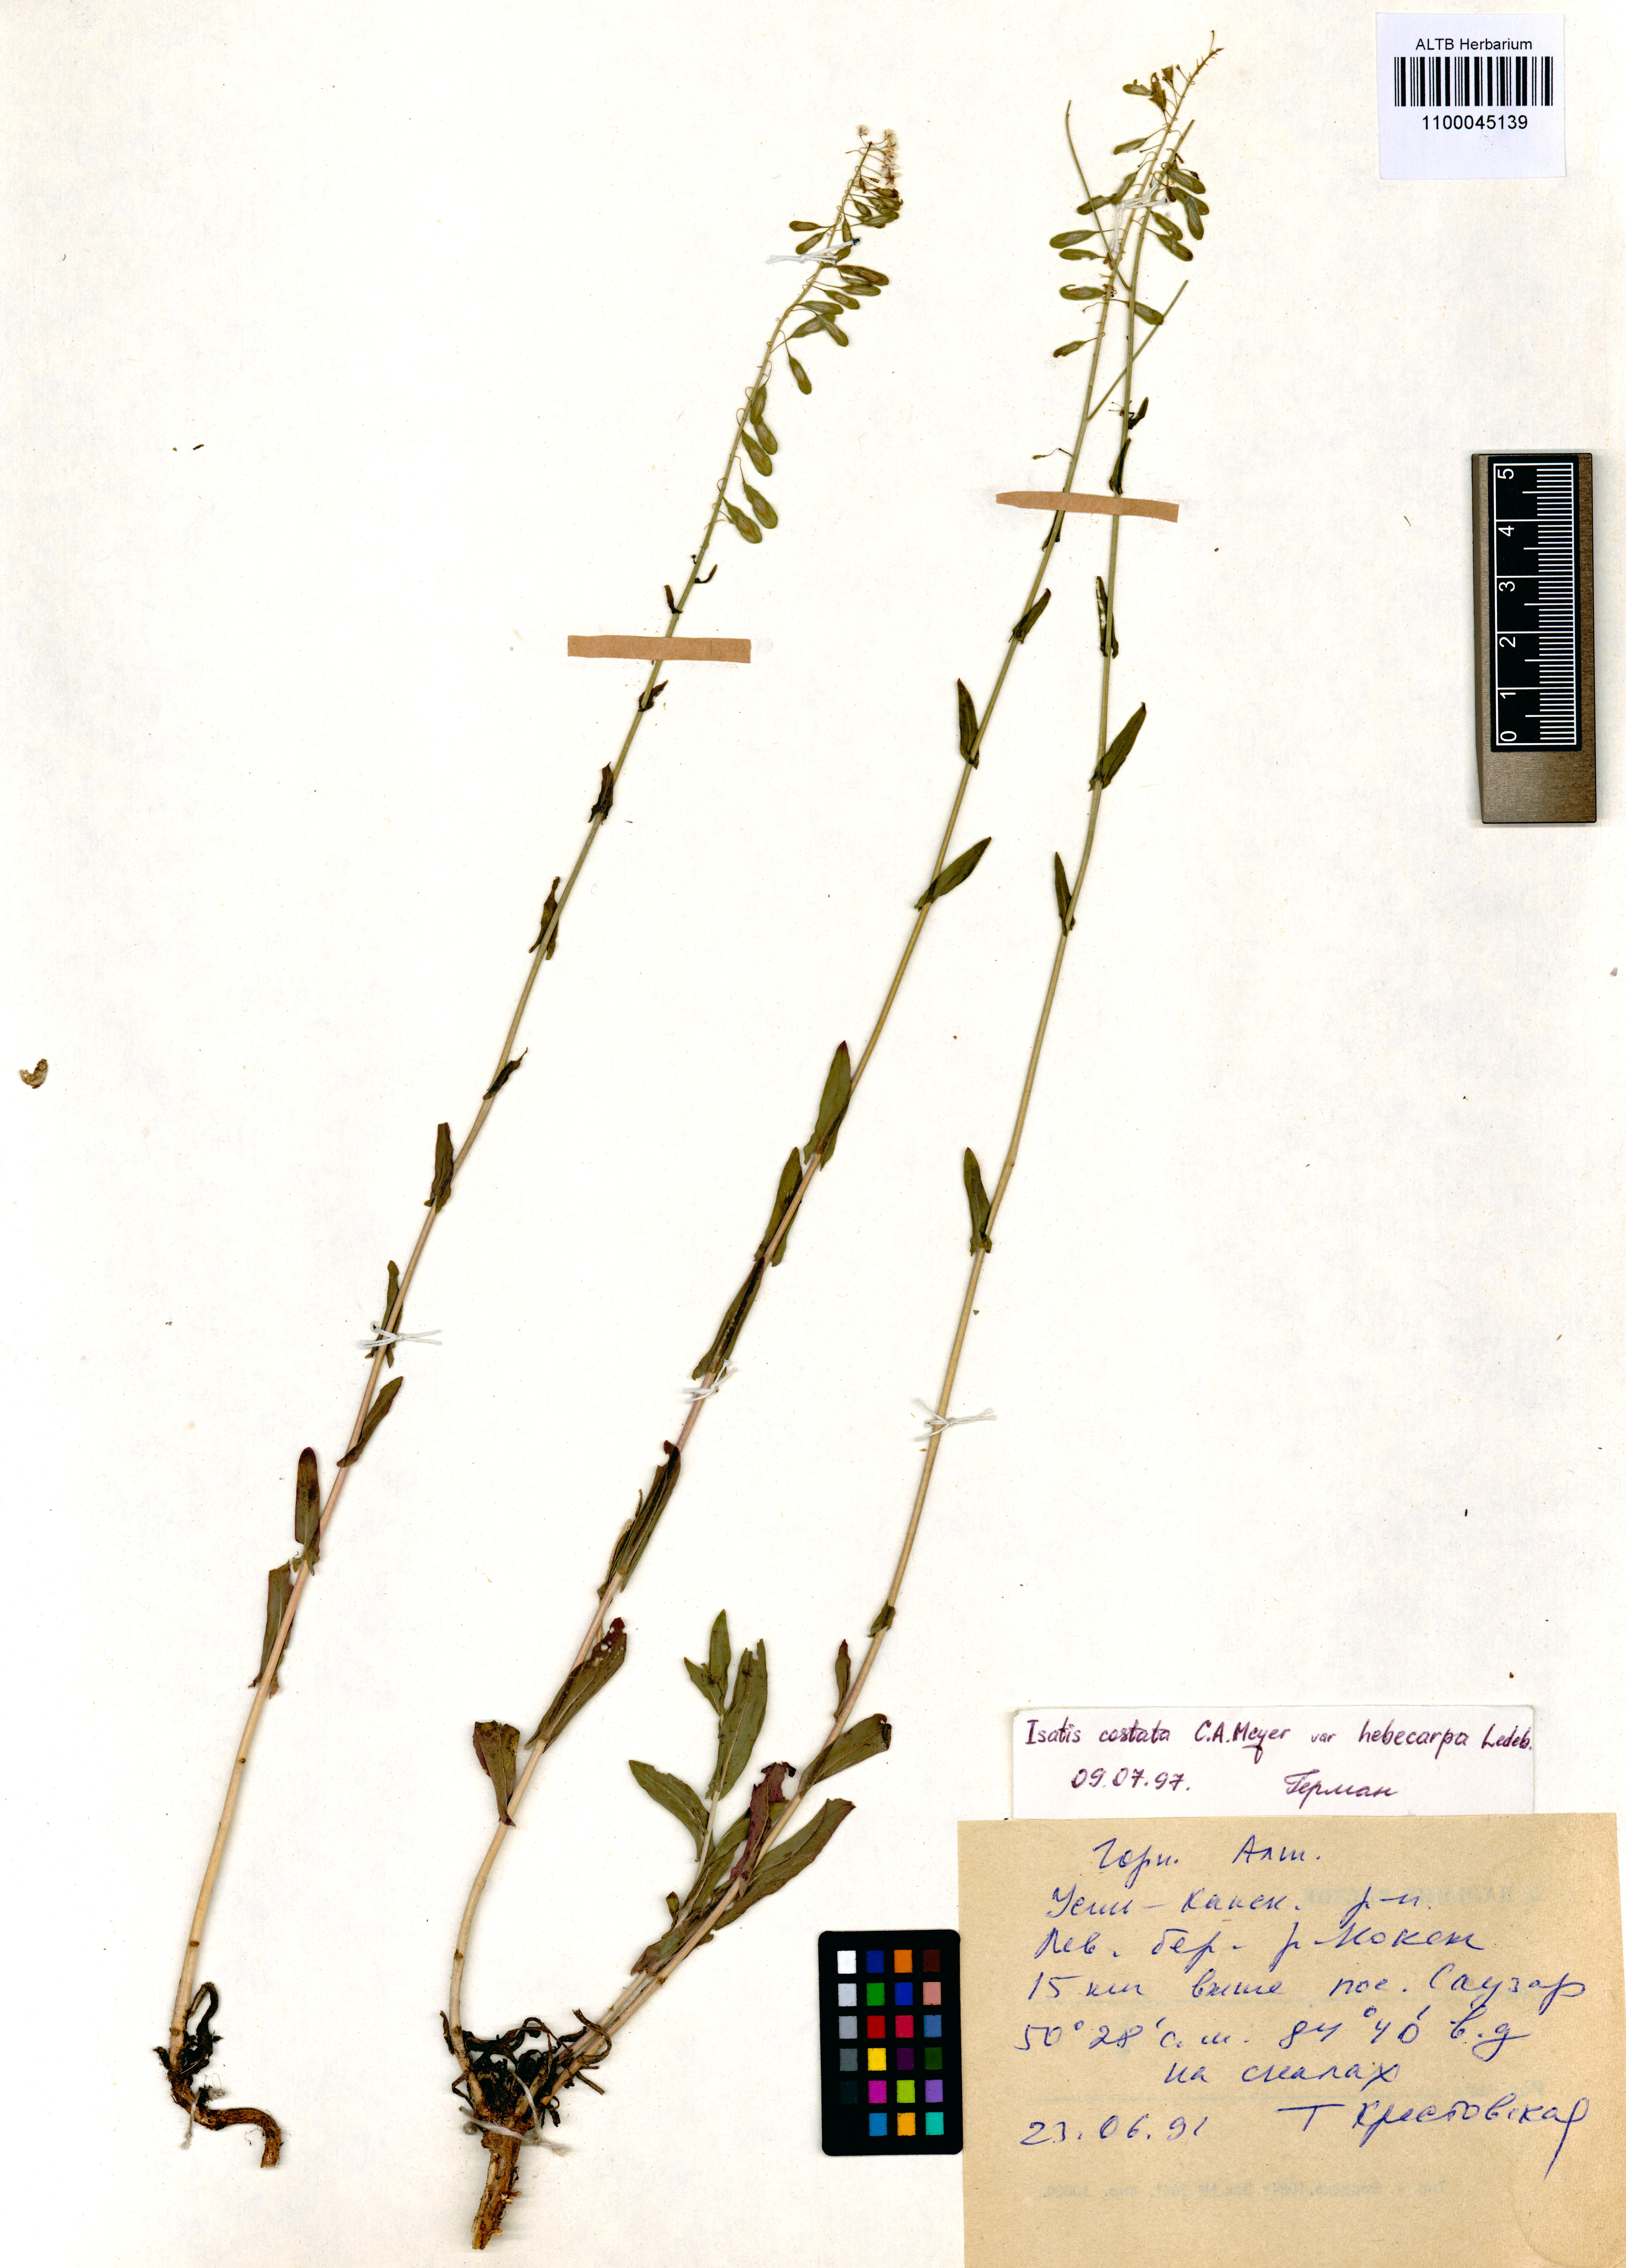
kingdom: Plantae
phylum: Tracheophyta
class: Magnoliopsida
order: Brassicales
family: Brassicaceae
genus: Isatis
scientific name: Isatis costata
